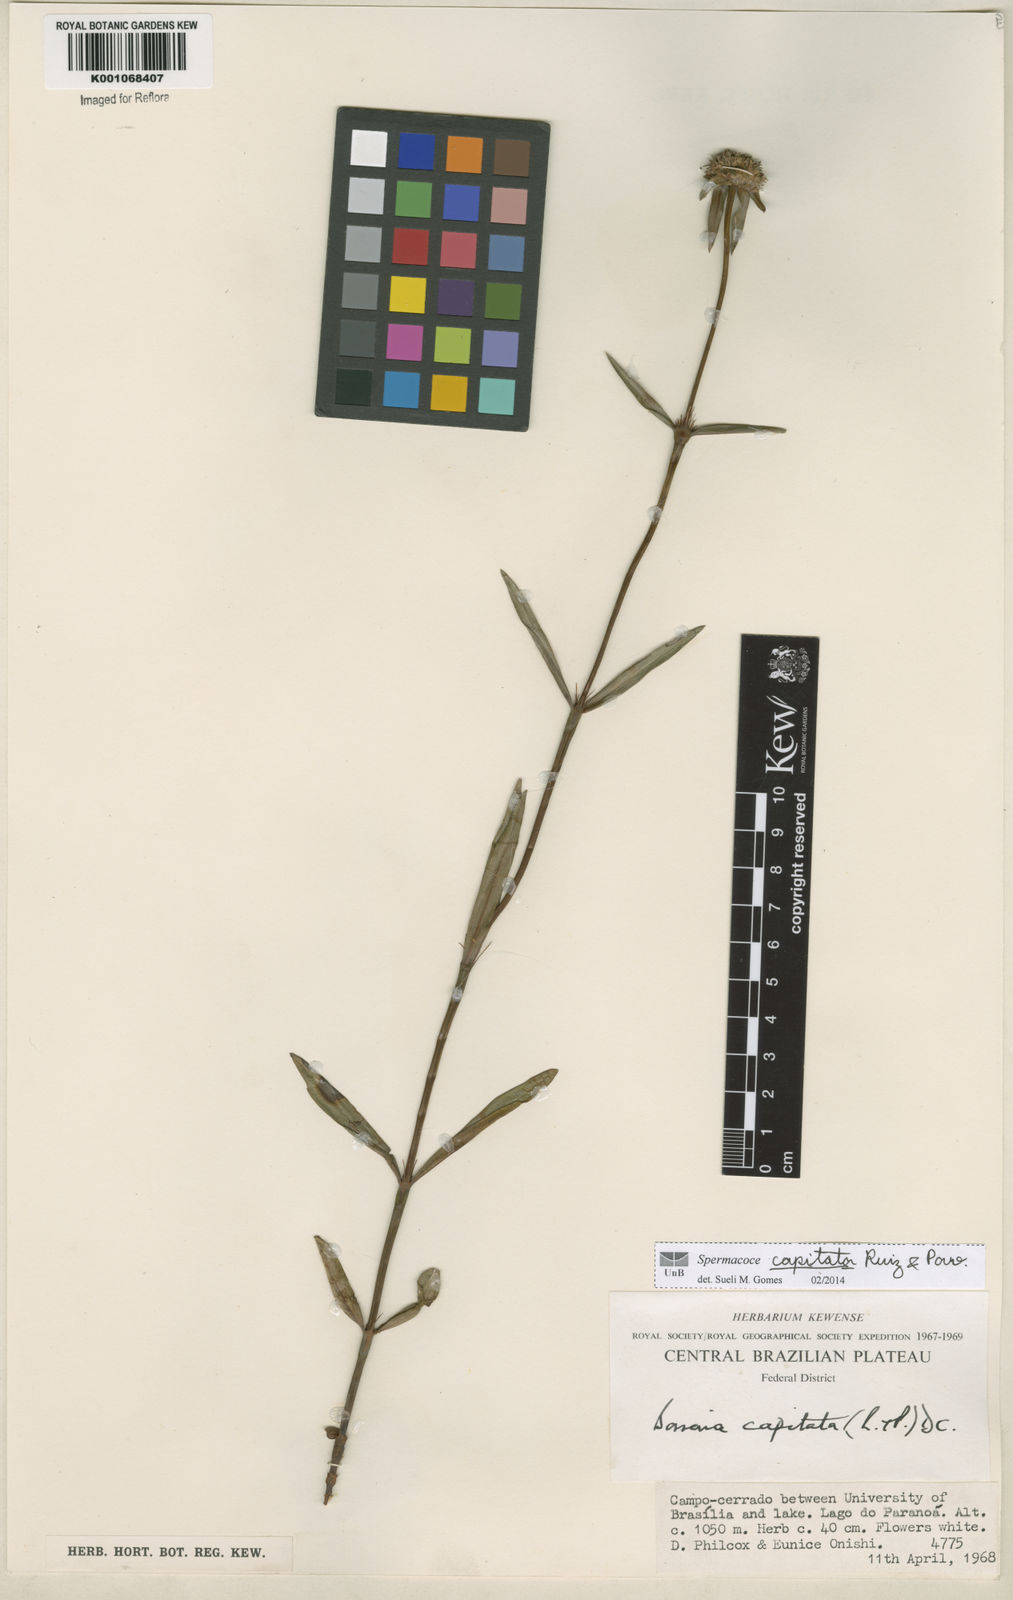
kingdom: Plantae
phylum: Tracheophyta
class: Magnoliopsida
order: Gentianales
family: Rubiaceae
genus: Spermacoce
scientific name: Spermacoce capitata
